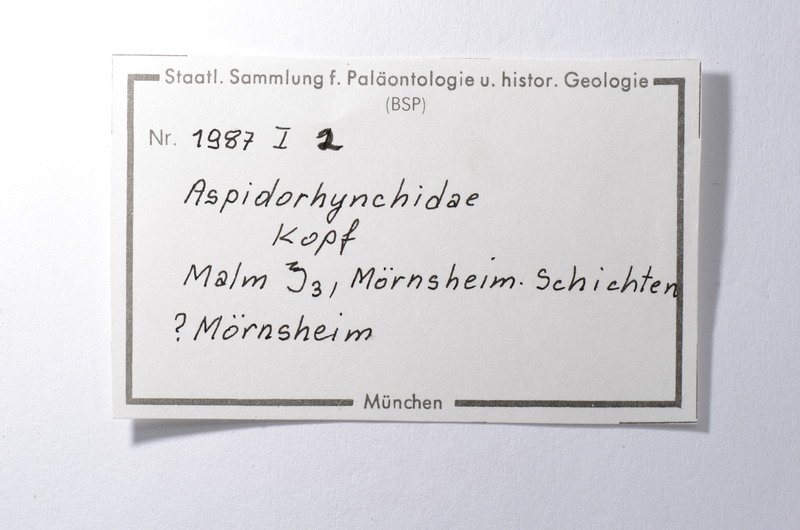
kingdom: Animalia
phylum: Chordata
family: Aspidorhynchidae
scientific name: Aspidorhynchidae
